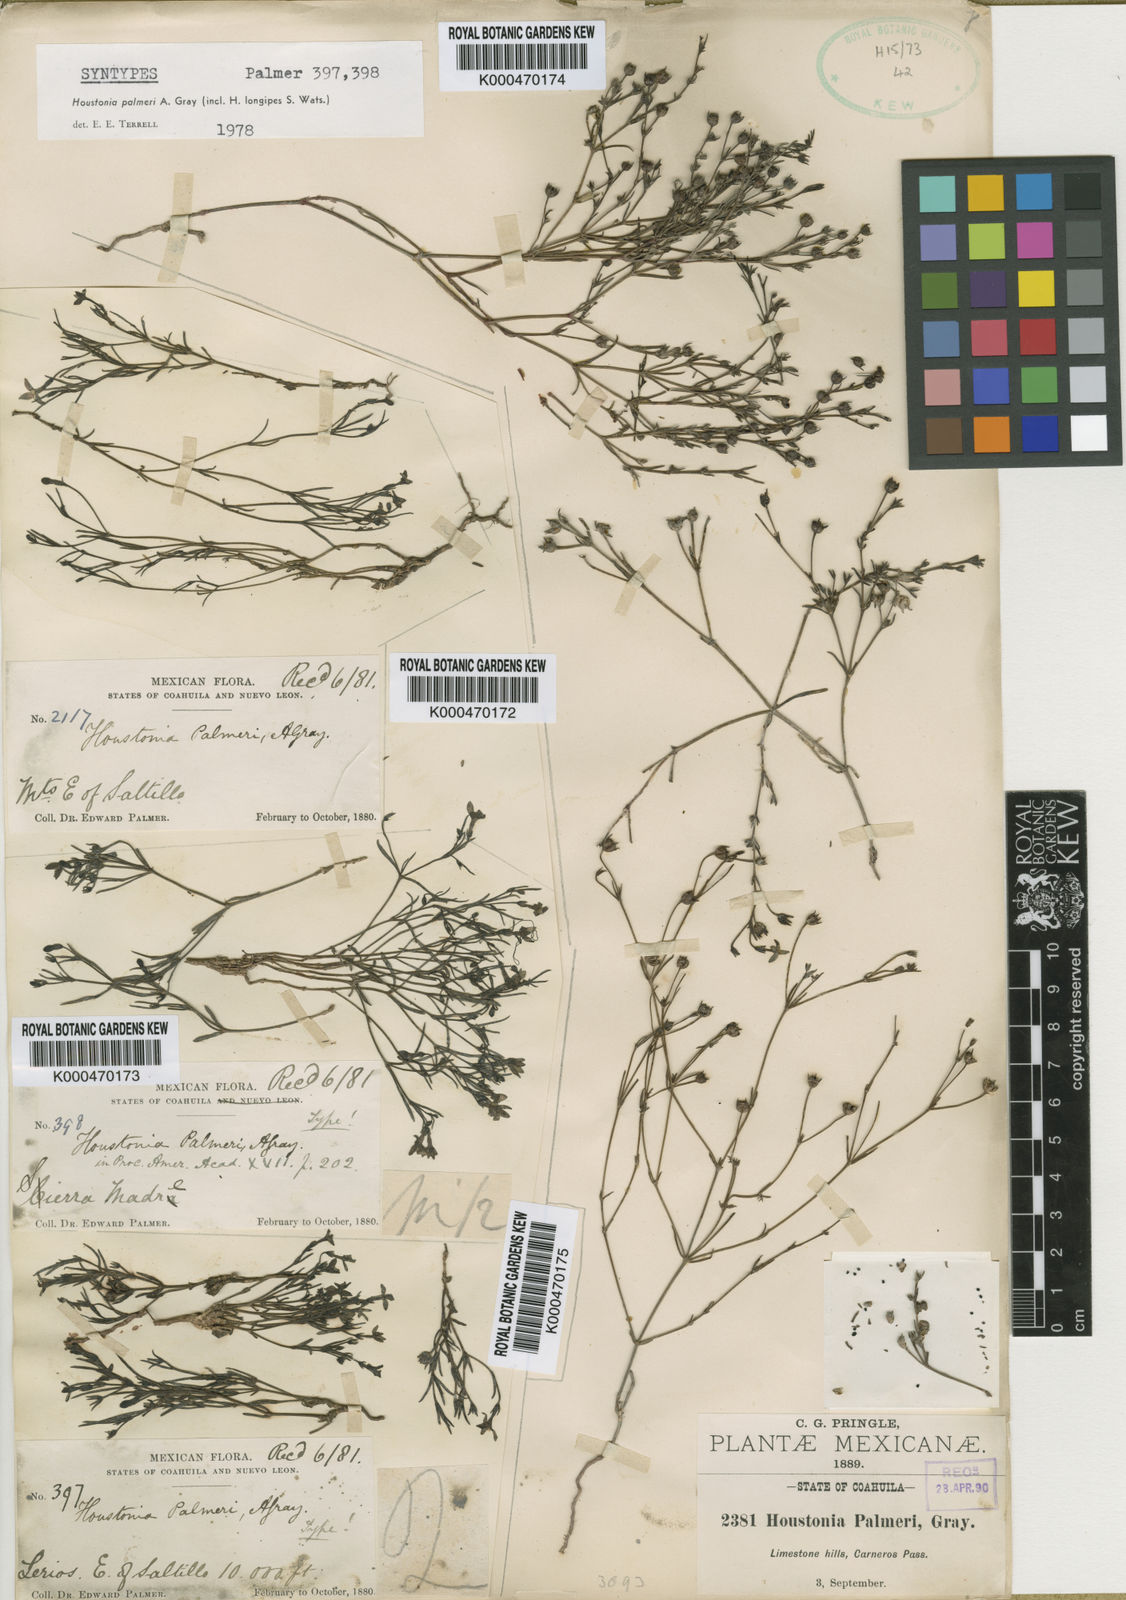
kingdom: Plantae
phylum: Tracheophyta
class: Magnoliopsida
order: Gentianales
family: Rubiaceae
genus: Houstonia
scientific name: Houstonia palmeri
